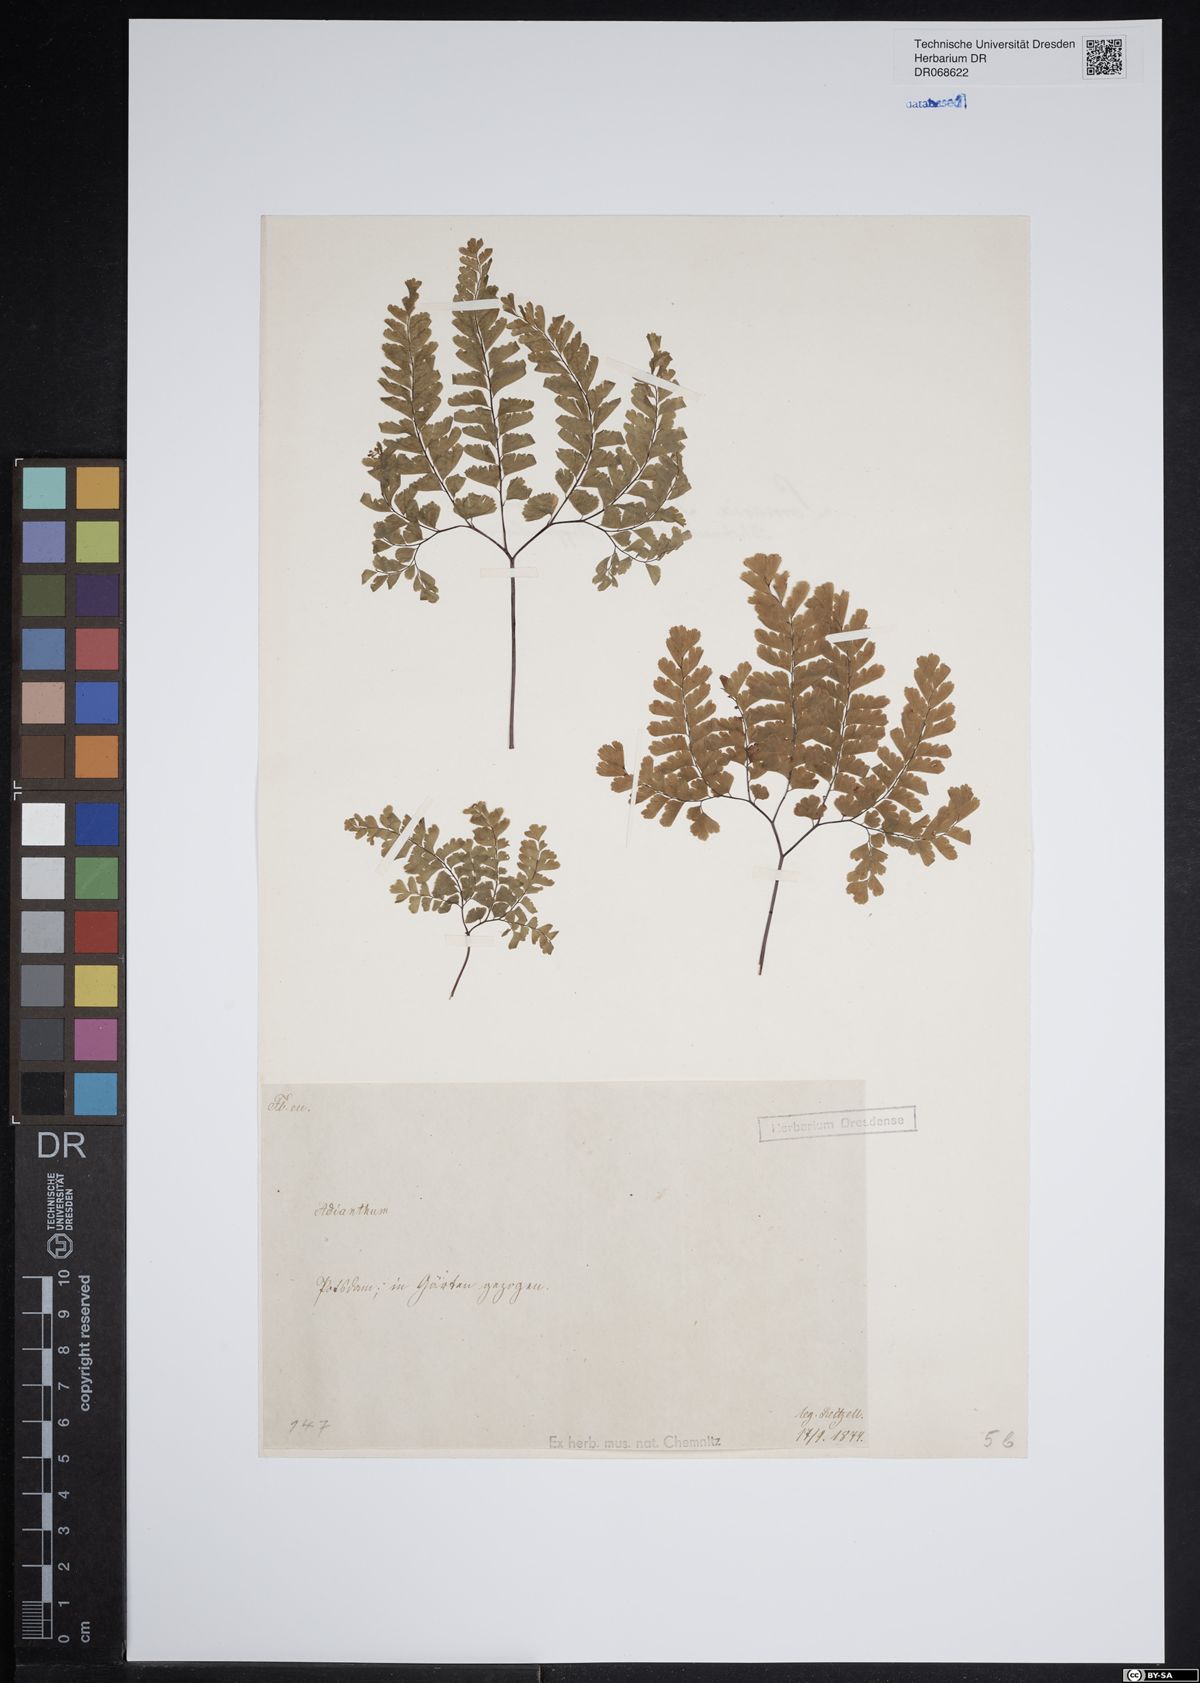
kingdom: Plantae
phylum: Tracheophyta
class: Polypodiopsida
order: Polypodiales
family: Pteridaceae
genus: Adiantum
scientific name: Adiantum
